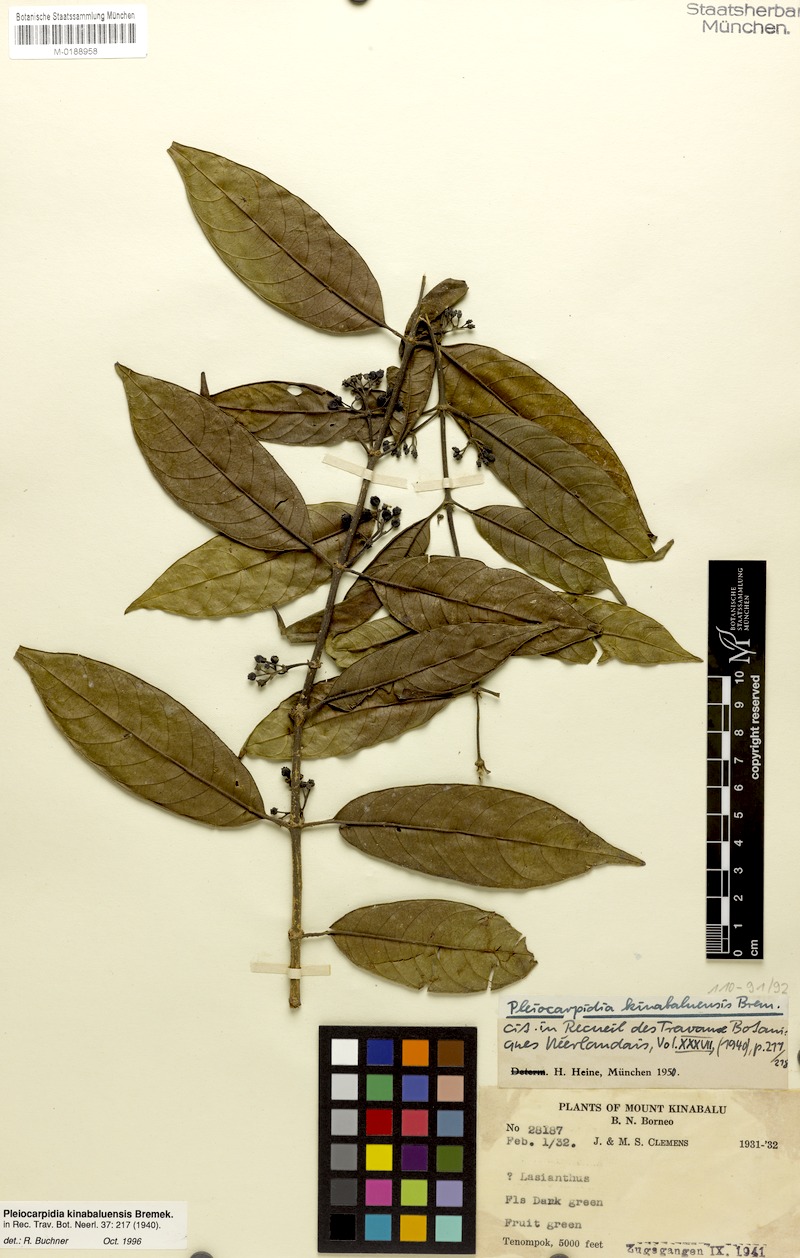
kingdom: Plantae
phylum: Tracheophyta
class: Magnoliopsida
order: Gentianales
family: Rubiaceae
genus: Urophyllum
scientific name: Urophyllum kinabaluense
